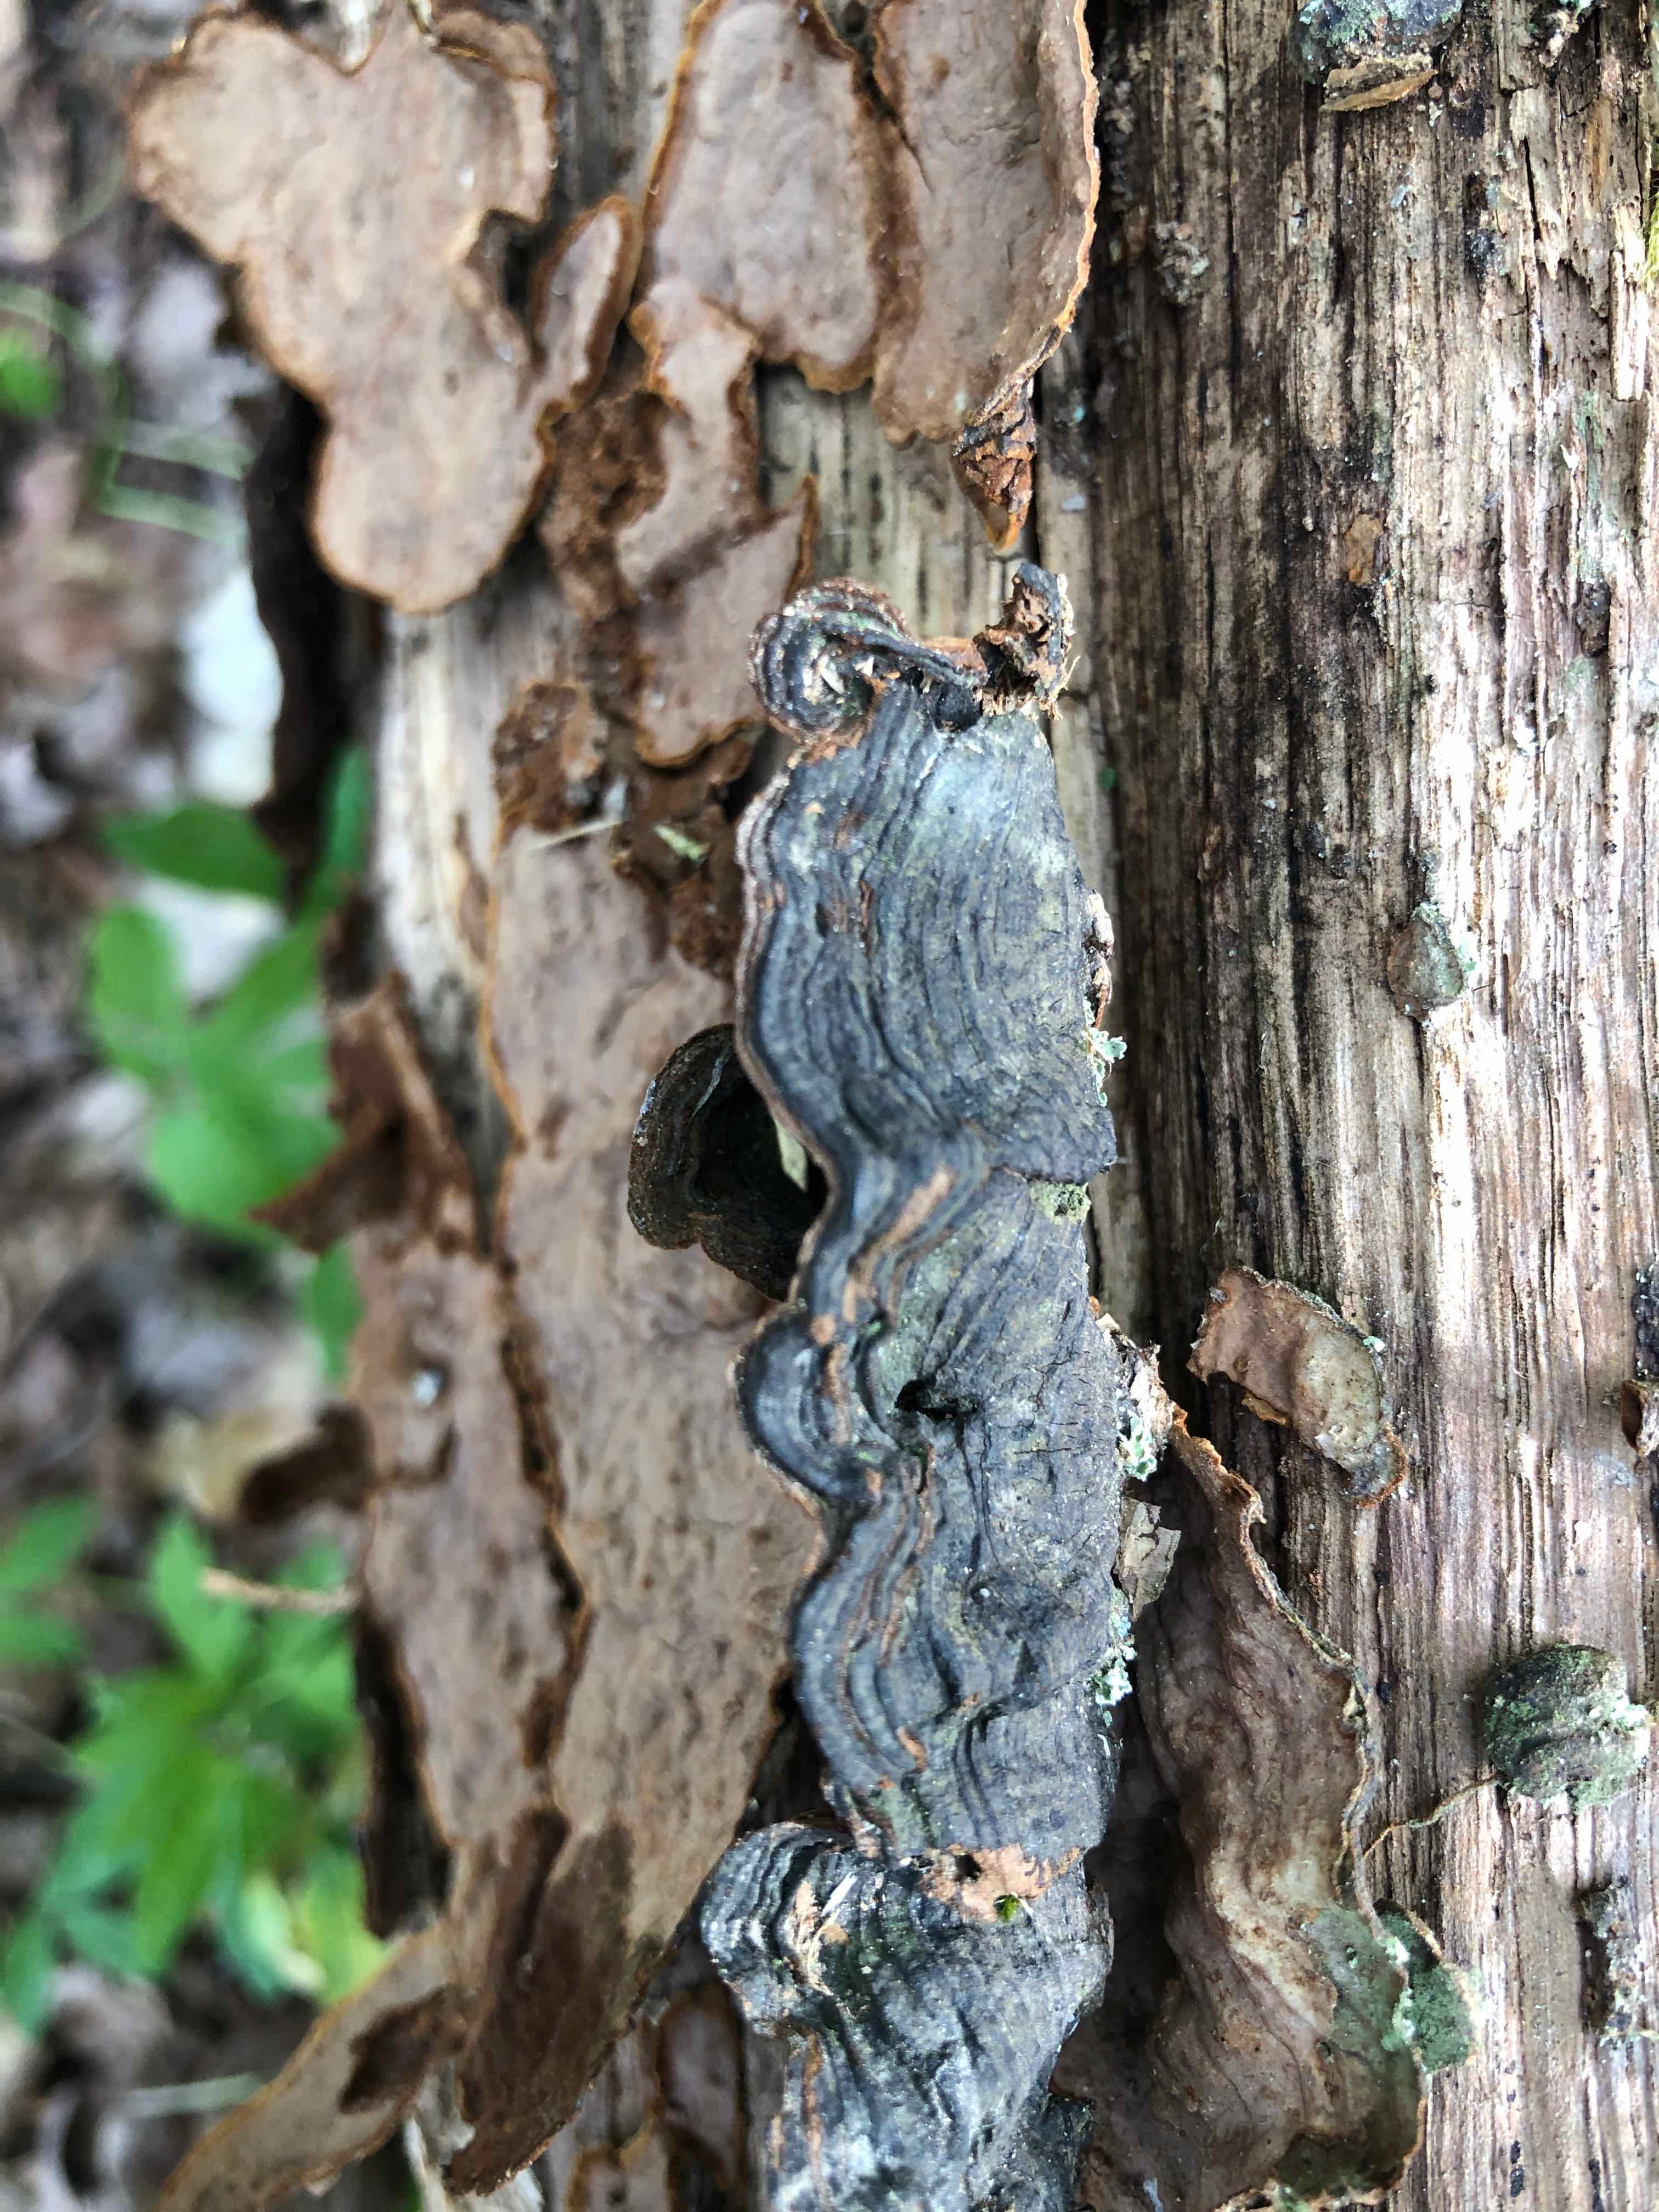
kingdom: Fungi
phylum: Basidiomycota
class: Agaricomycetes
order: Hymenochaetales
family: Hymenochaetaceae
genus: Hymenochaete
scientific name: Hymenochaete rubiginosa
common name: stiv ruslædersvamp
